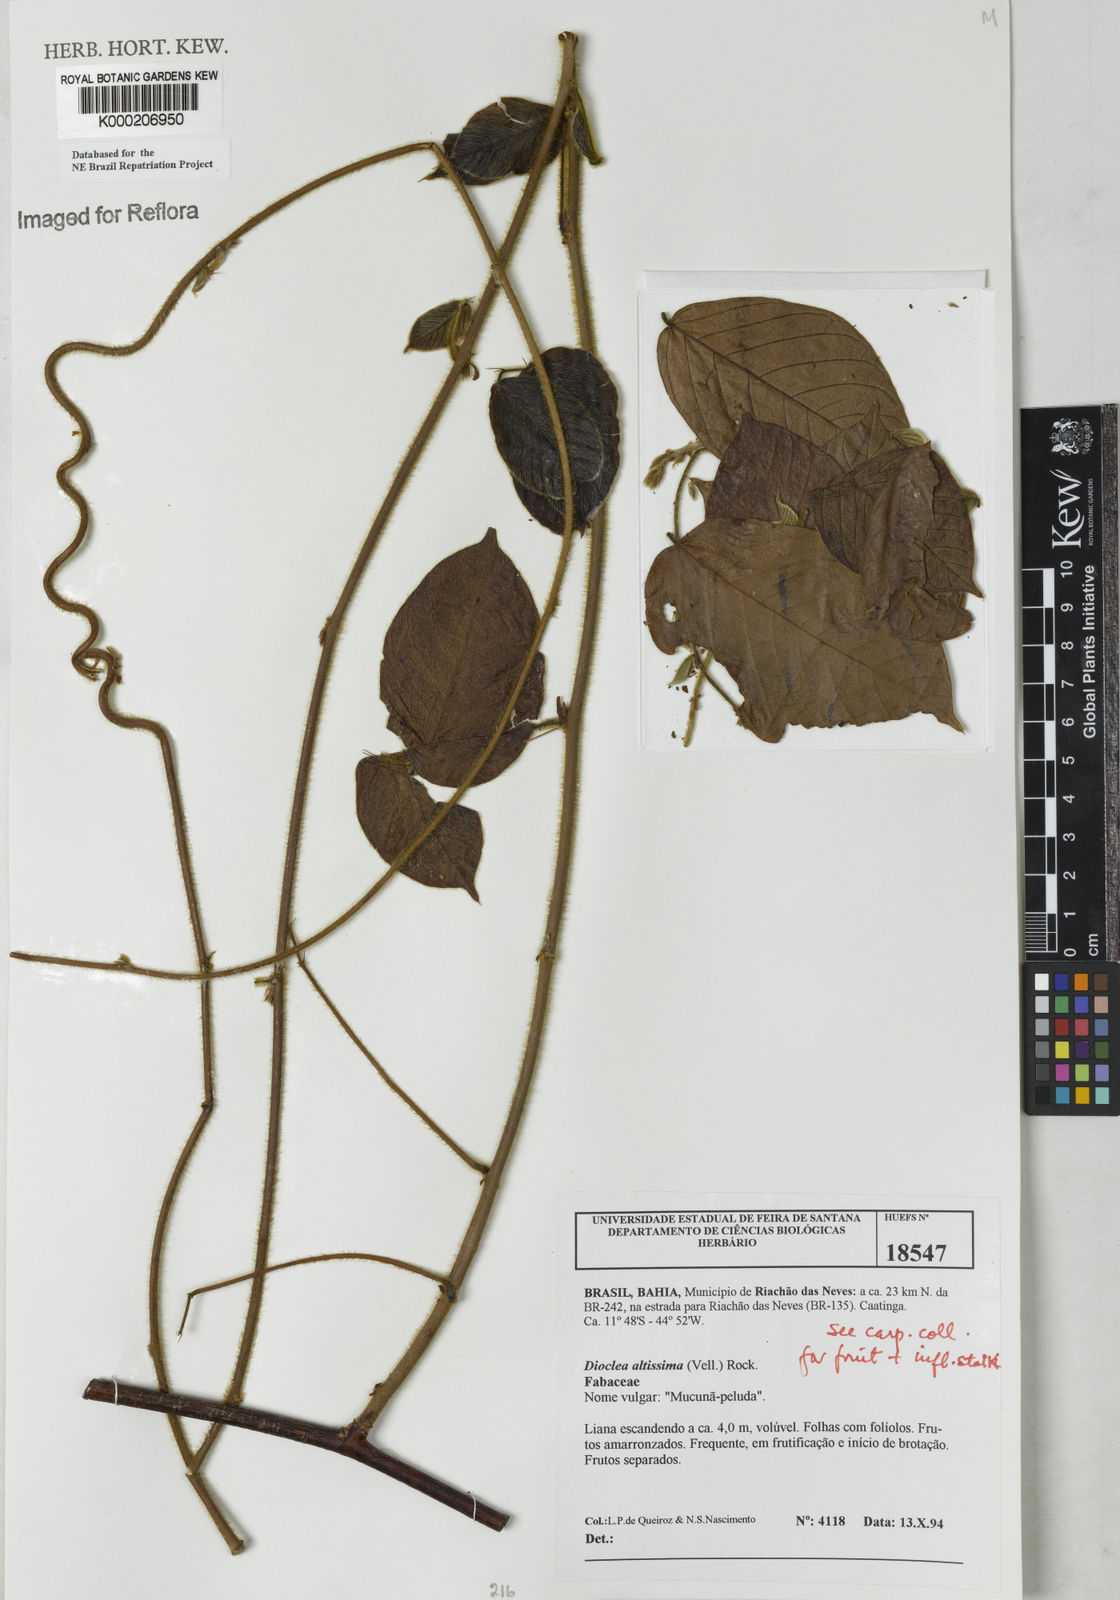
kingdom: Plantae
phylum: Tracheophyta
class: Magnoliopsida
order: Fabales
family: Fabaceae
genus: Macropsychanthus
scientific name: Macropsychanthus violaceus
